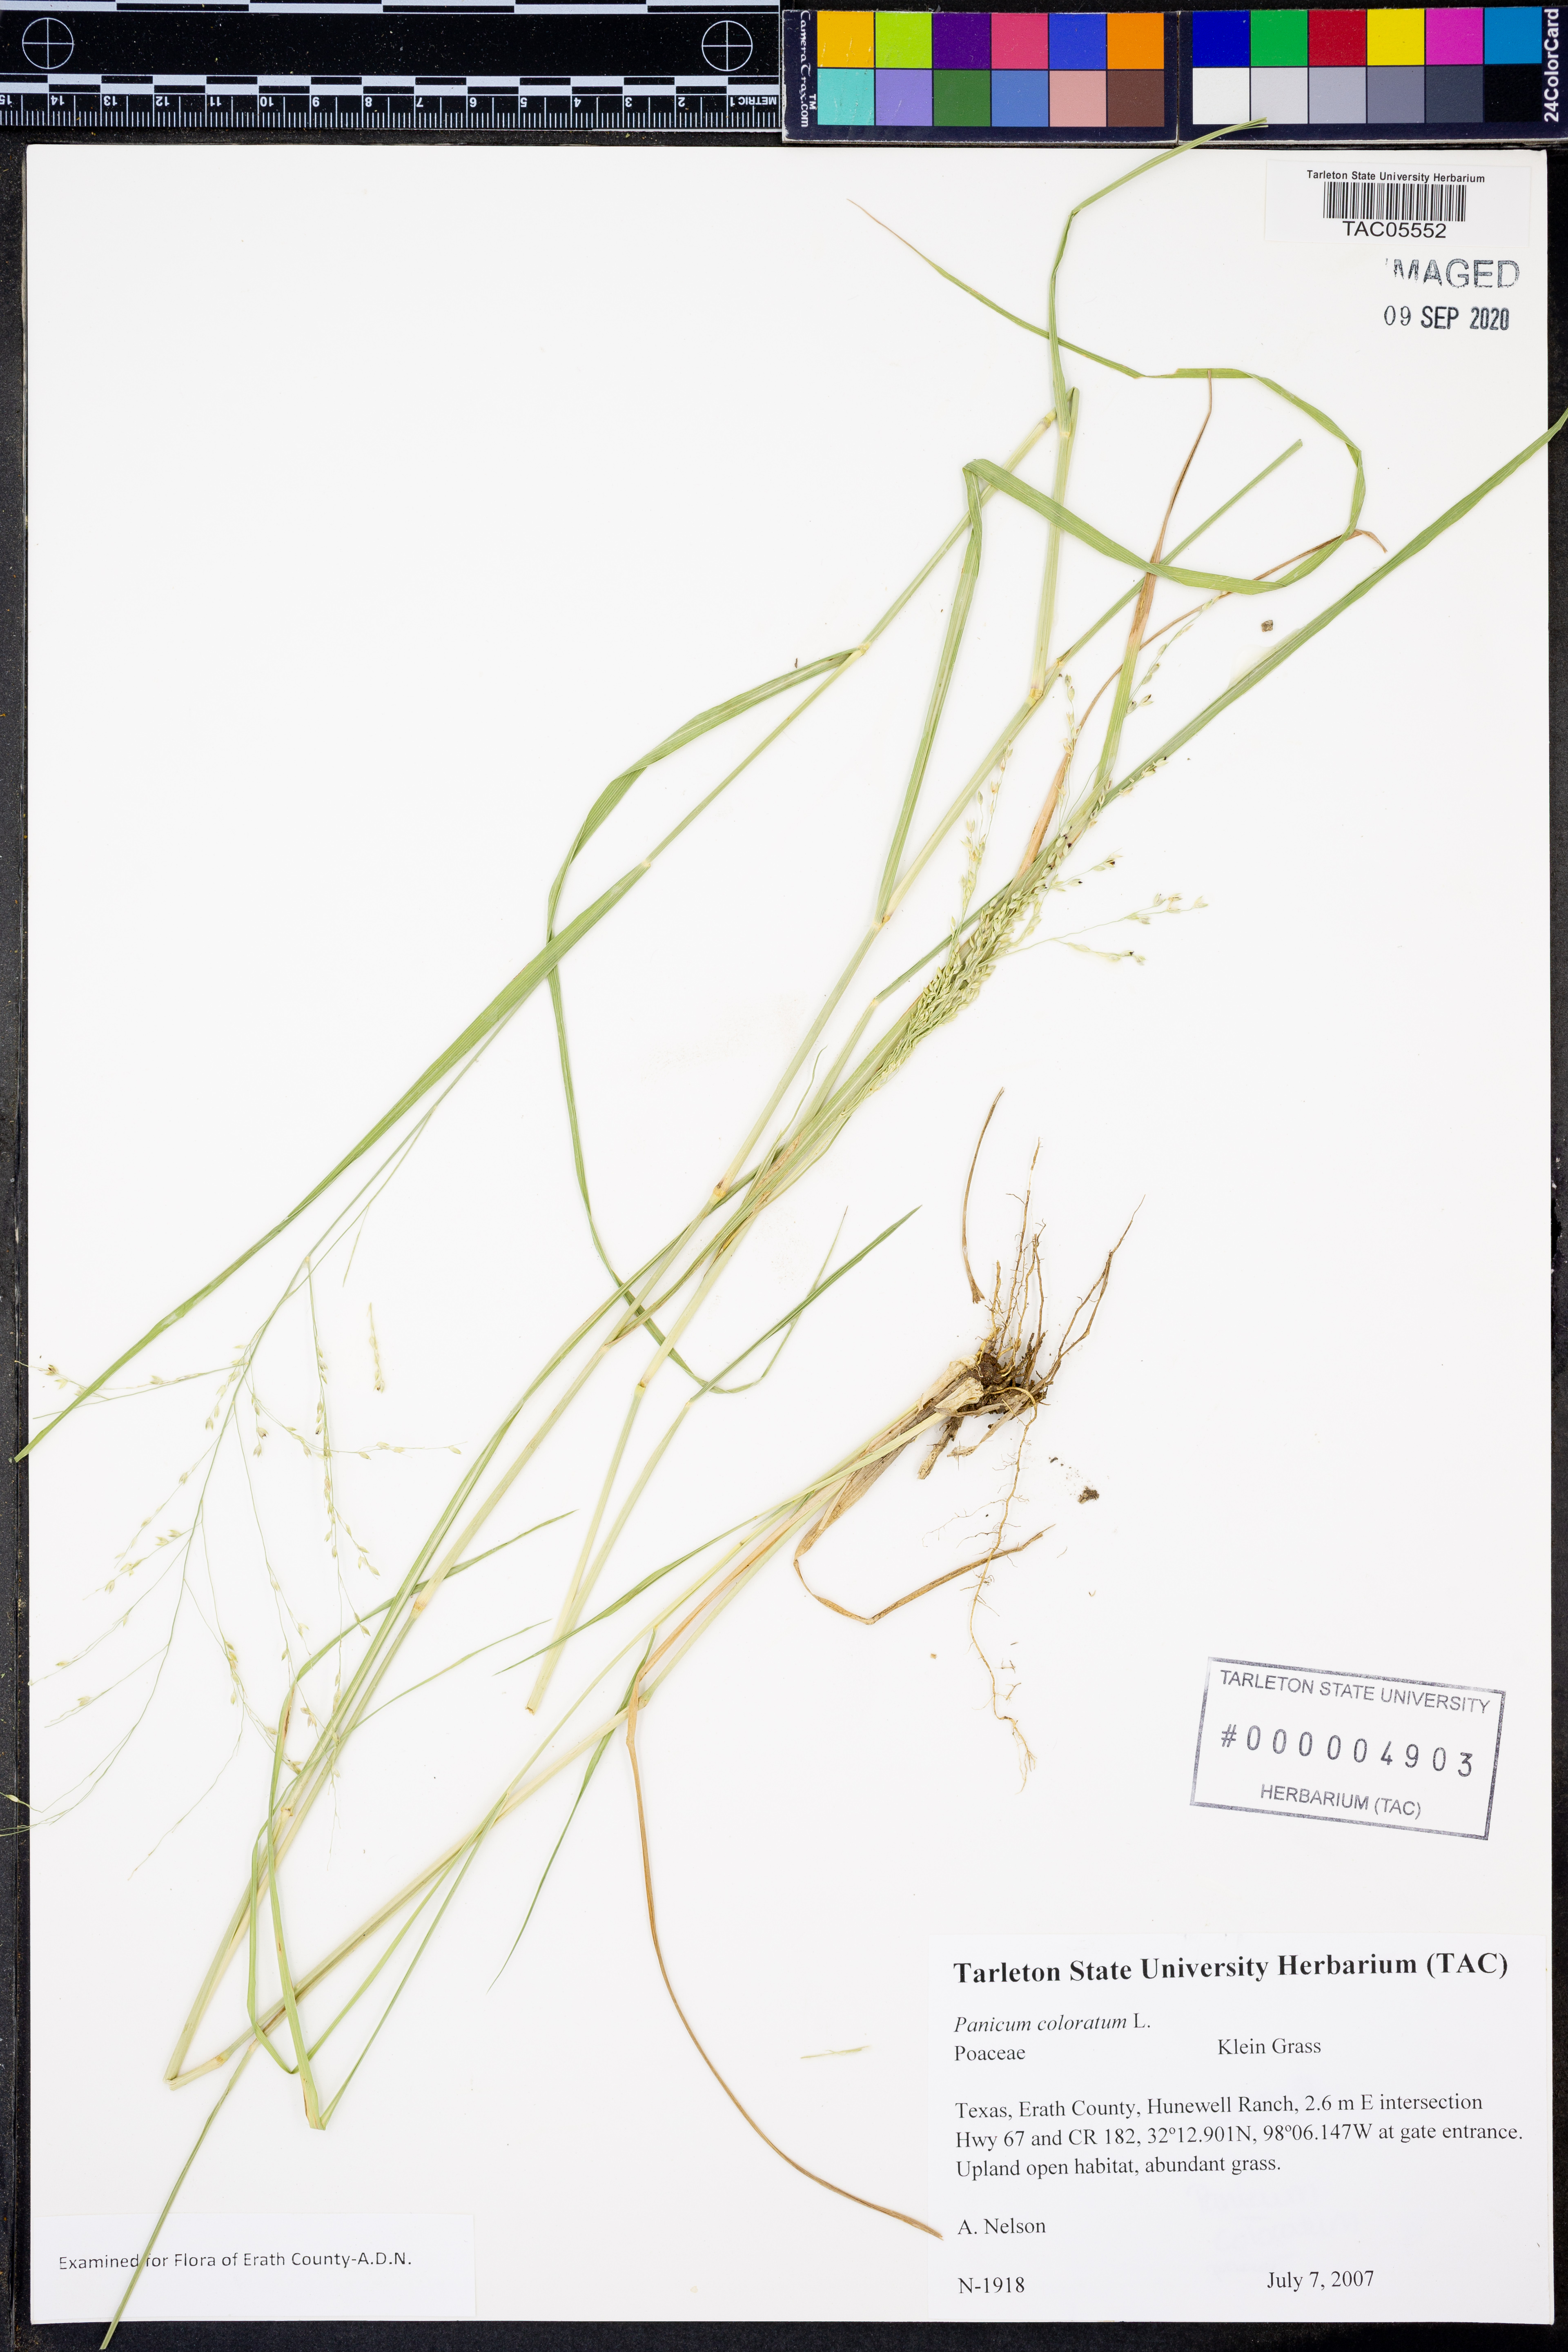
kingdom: Plantae
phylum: Tracheophyta
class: Liliopsida
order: Poales
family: Poaceae
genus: Panicum
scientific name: Panicum coloratum
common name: Kleingrass
